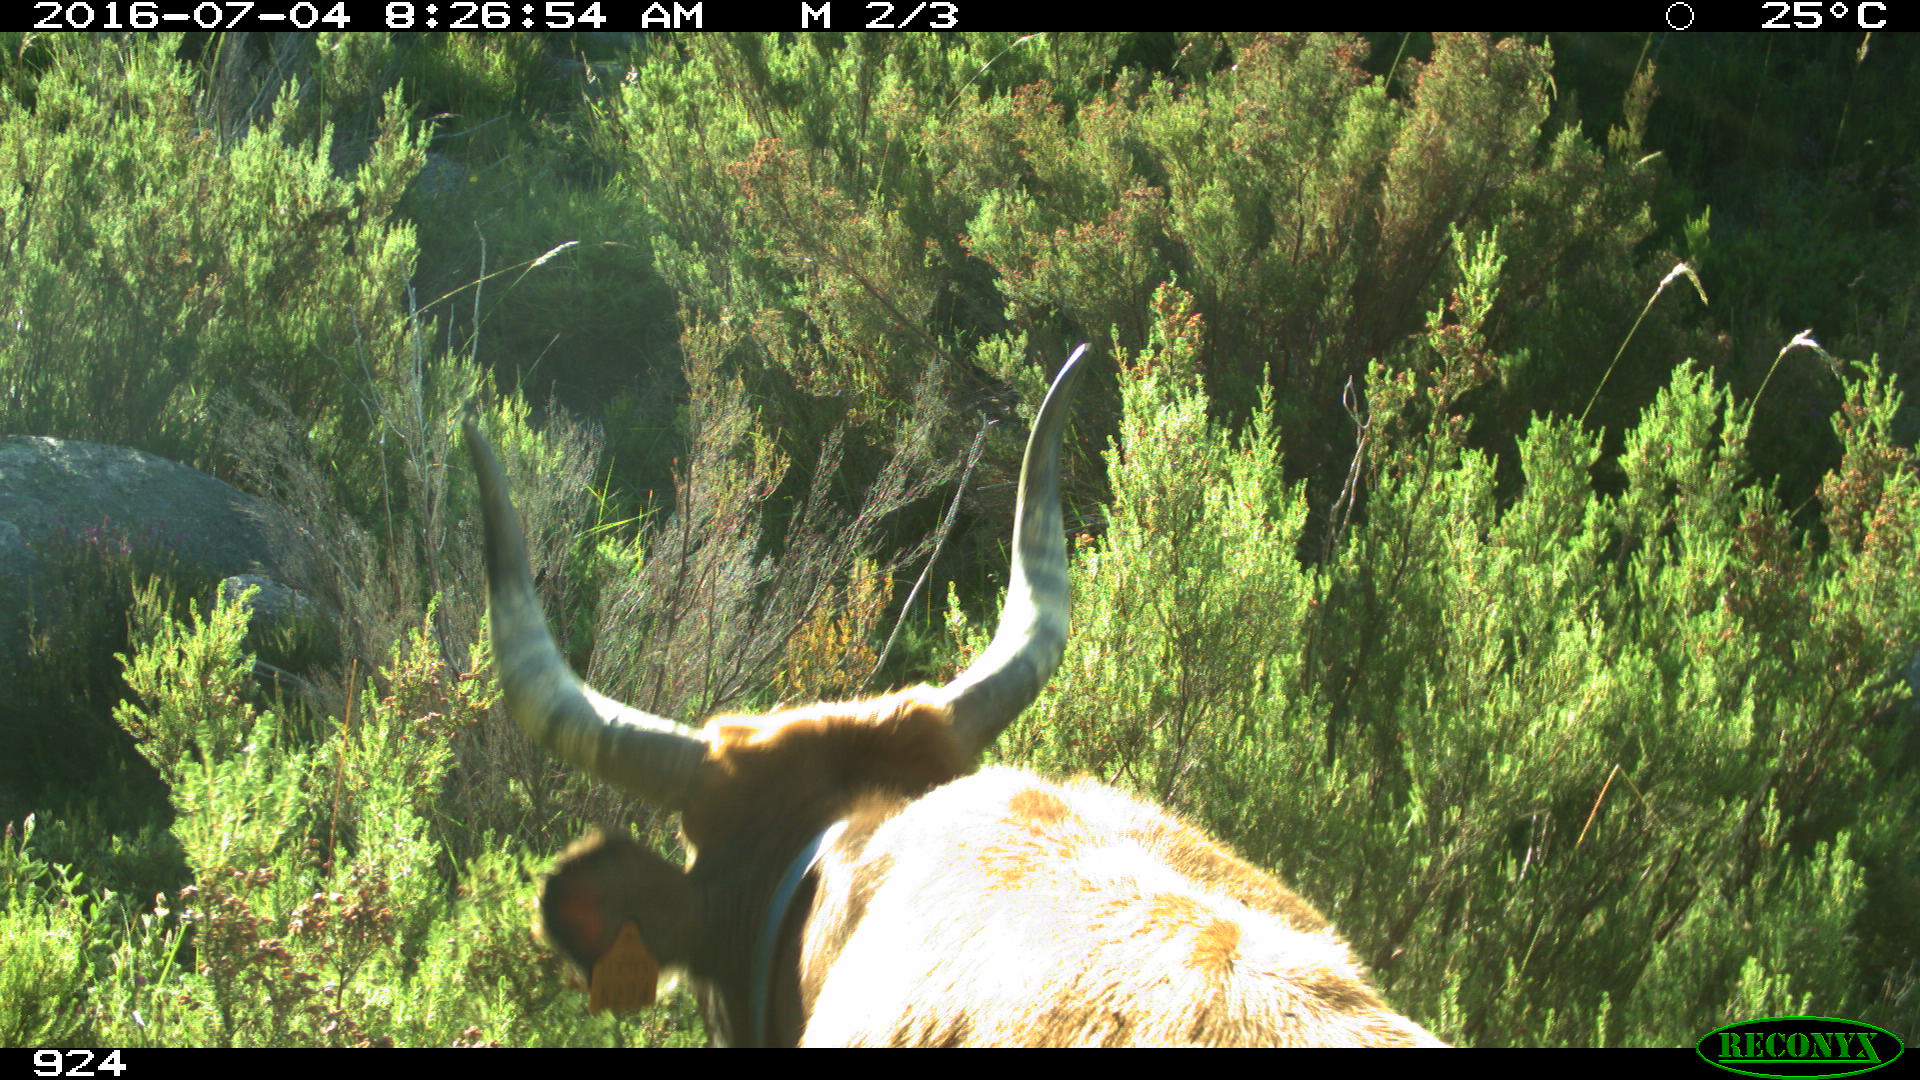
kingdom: Animalia
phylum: Chordata
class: Mammalia
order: Artiodactyla
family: Bovidae
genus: Bos
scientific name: Bos taurus
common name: Domesticated cattle
